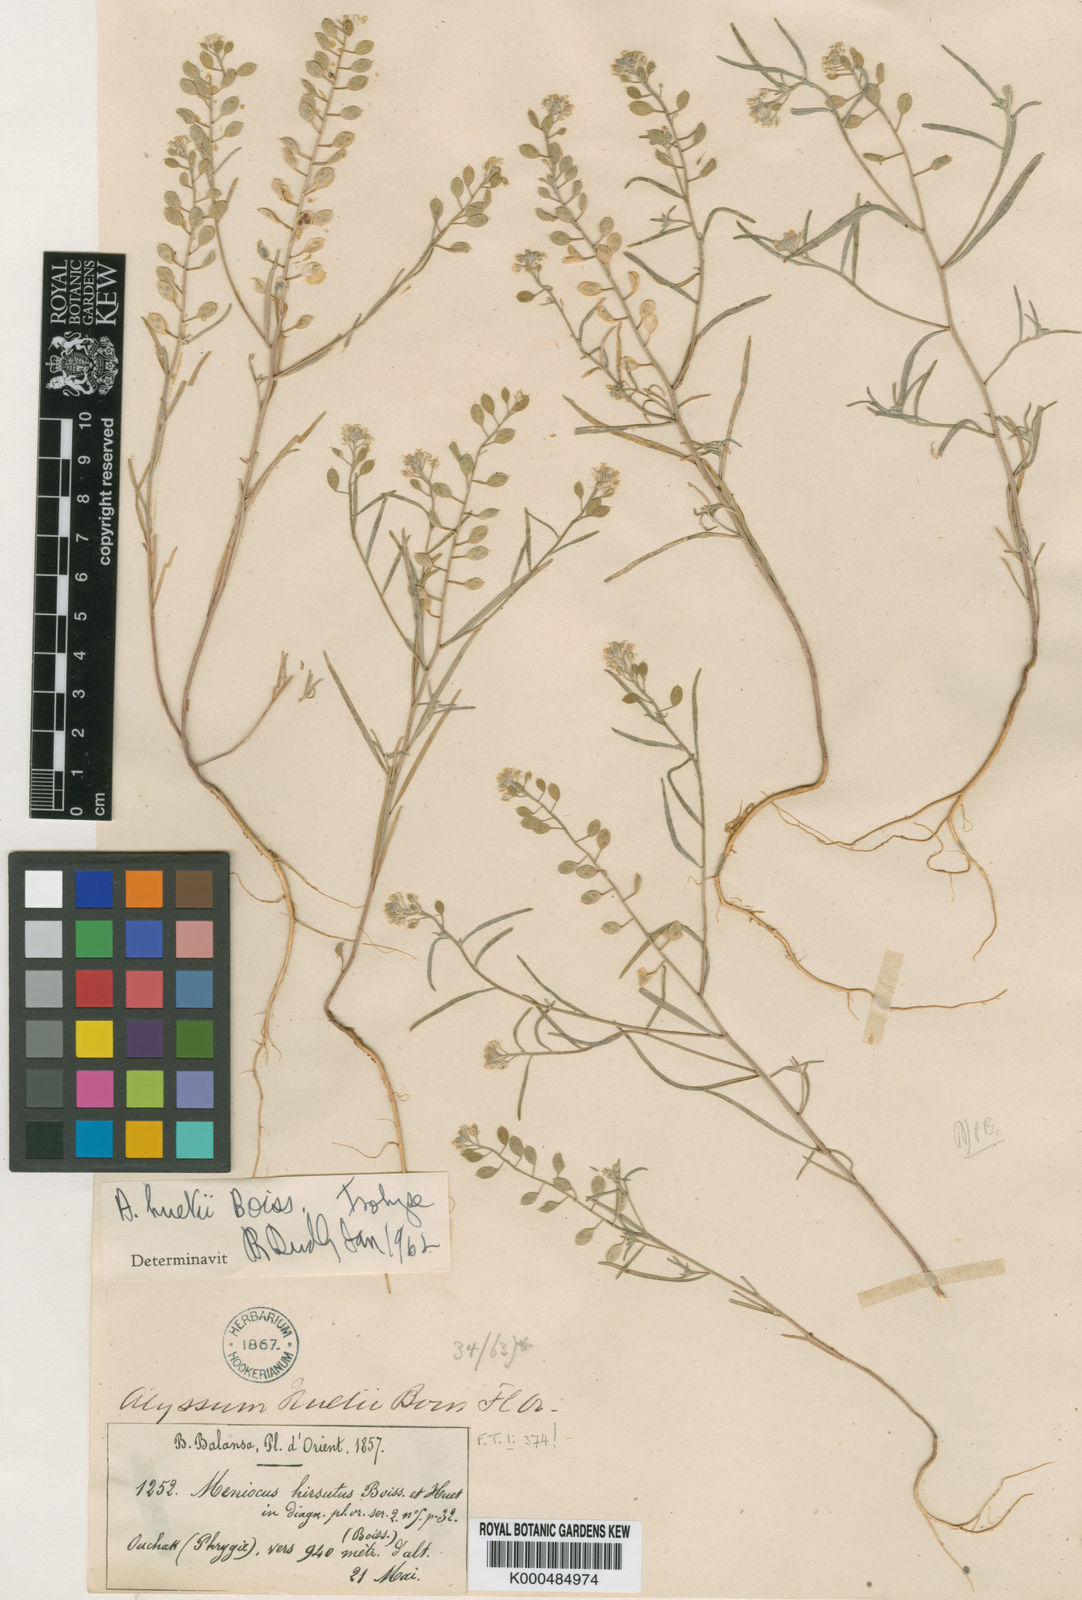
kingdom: Plantae
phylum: Tracheophyta
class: Magnoliopsida
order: Brassicales
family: Brassicaceae
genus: Meniocus
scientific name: Meniocus hirsutus
